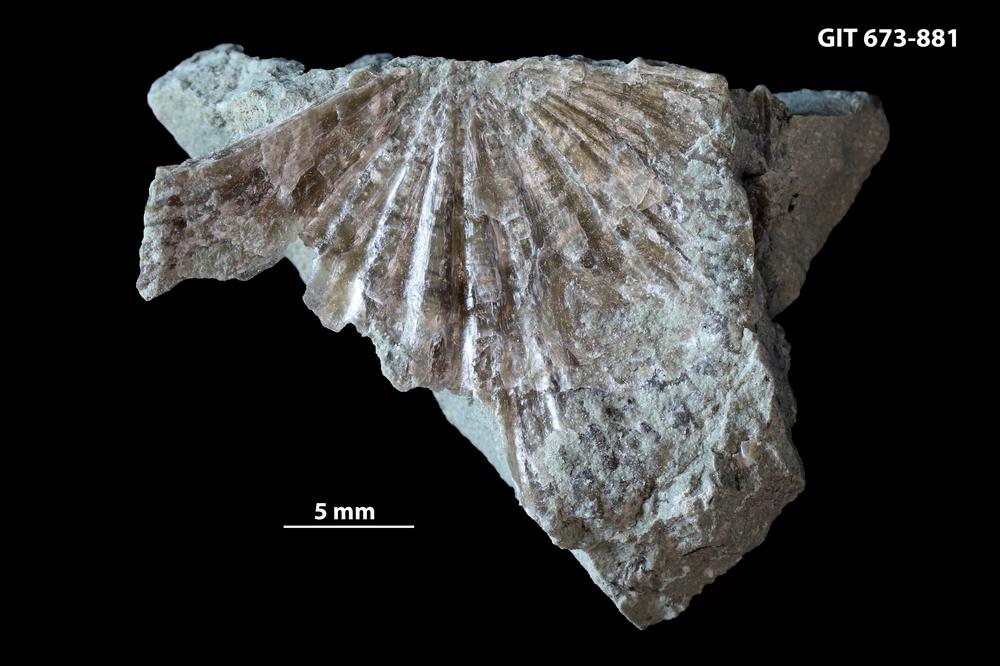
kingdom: Animalia
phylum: Brachiopoda
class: Rhynchonellata
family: Productorthidae
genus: Nicolella
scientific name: Nicolella
